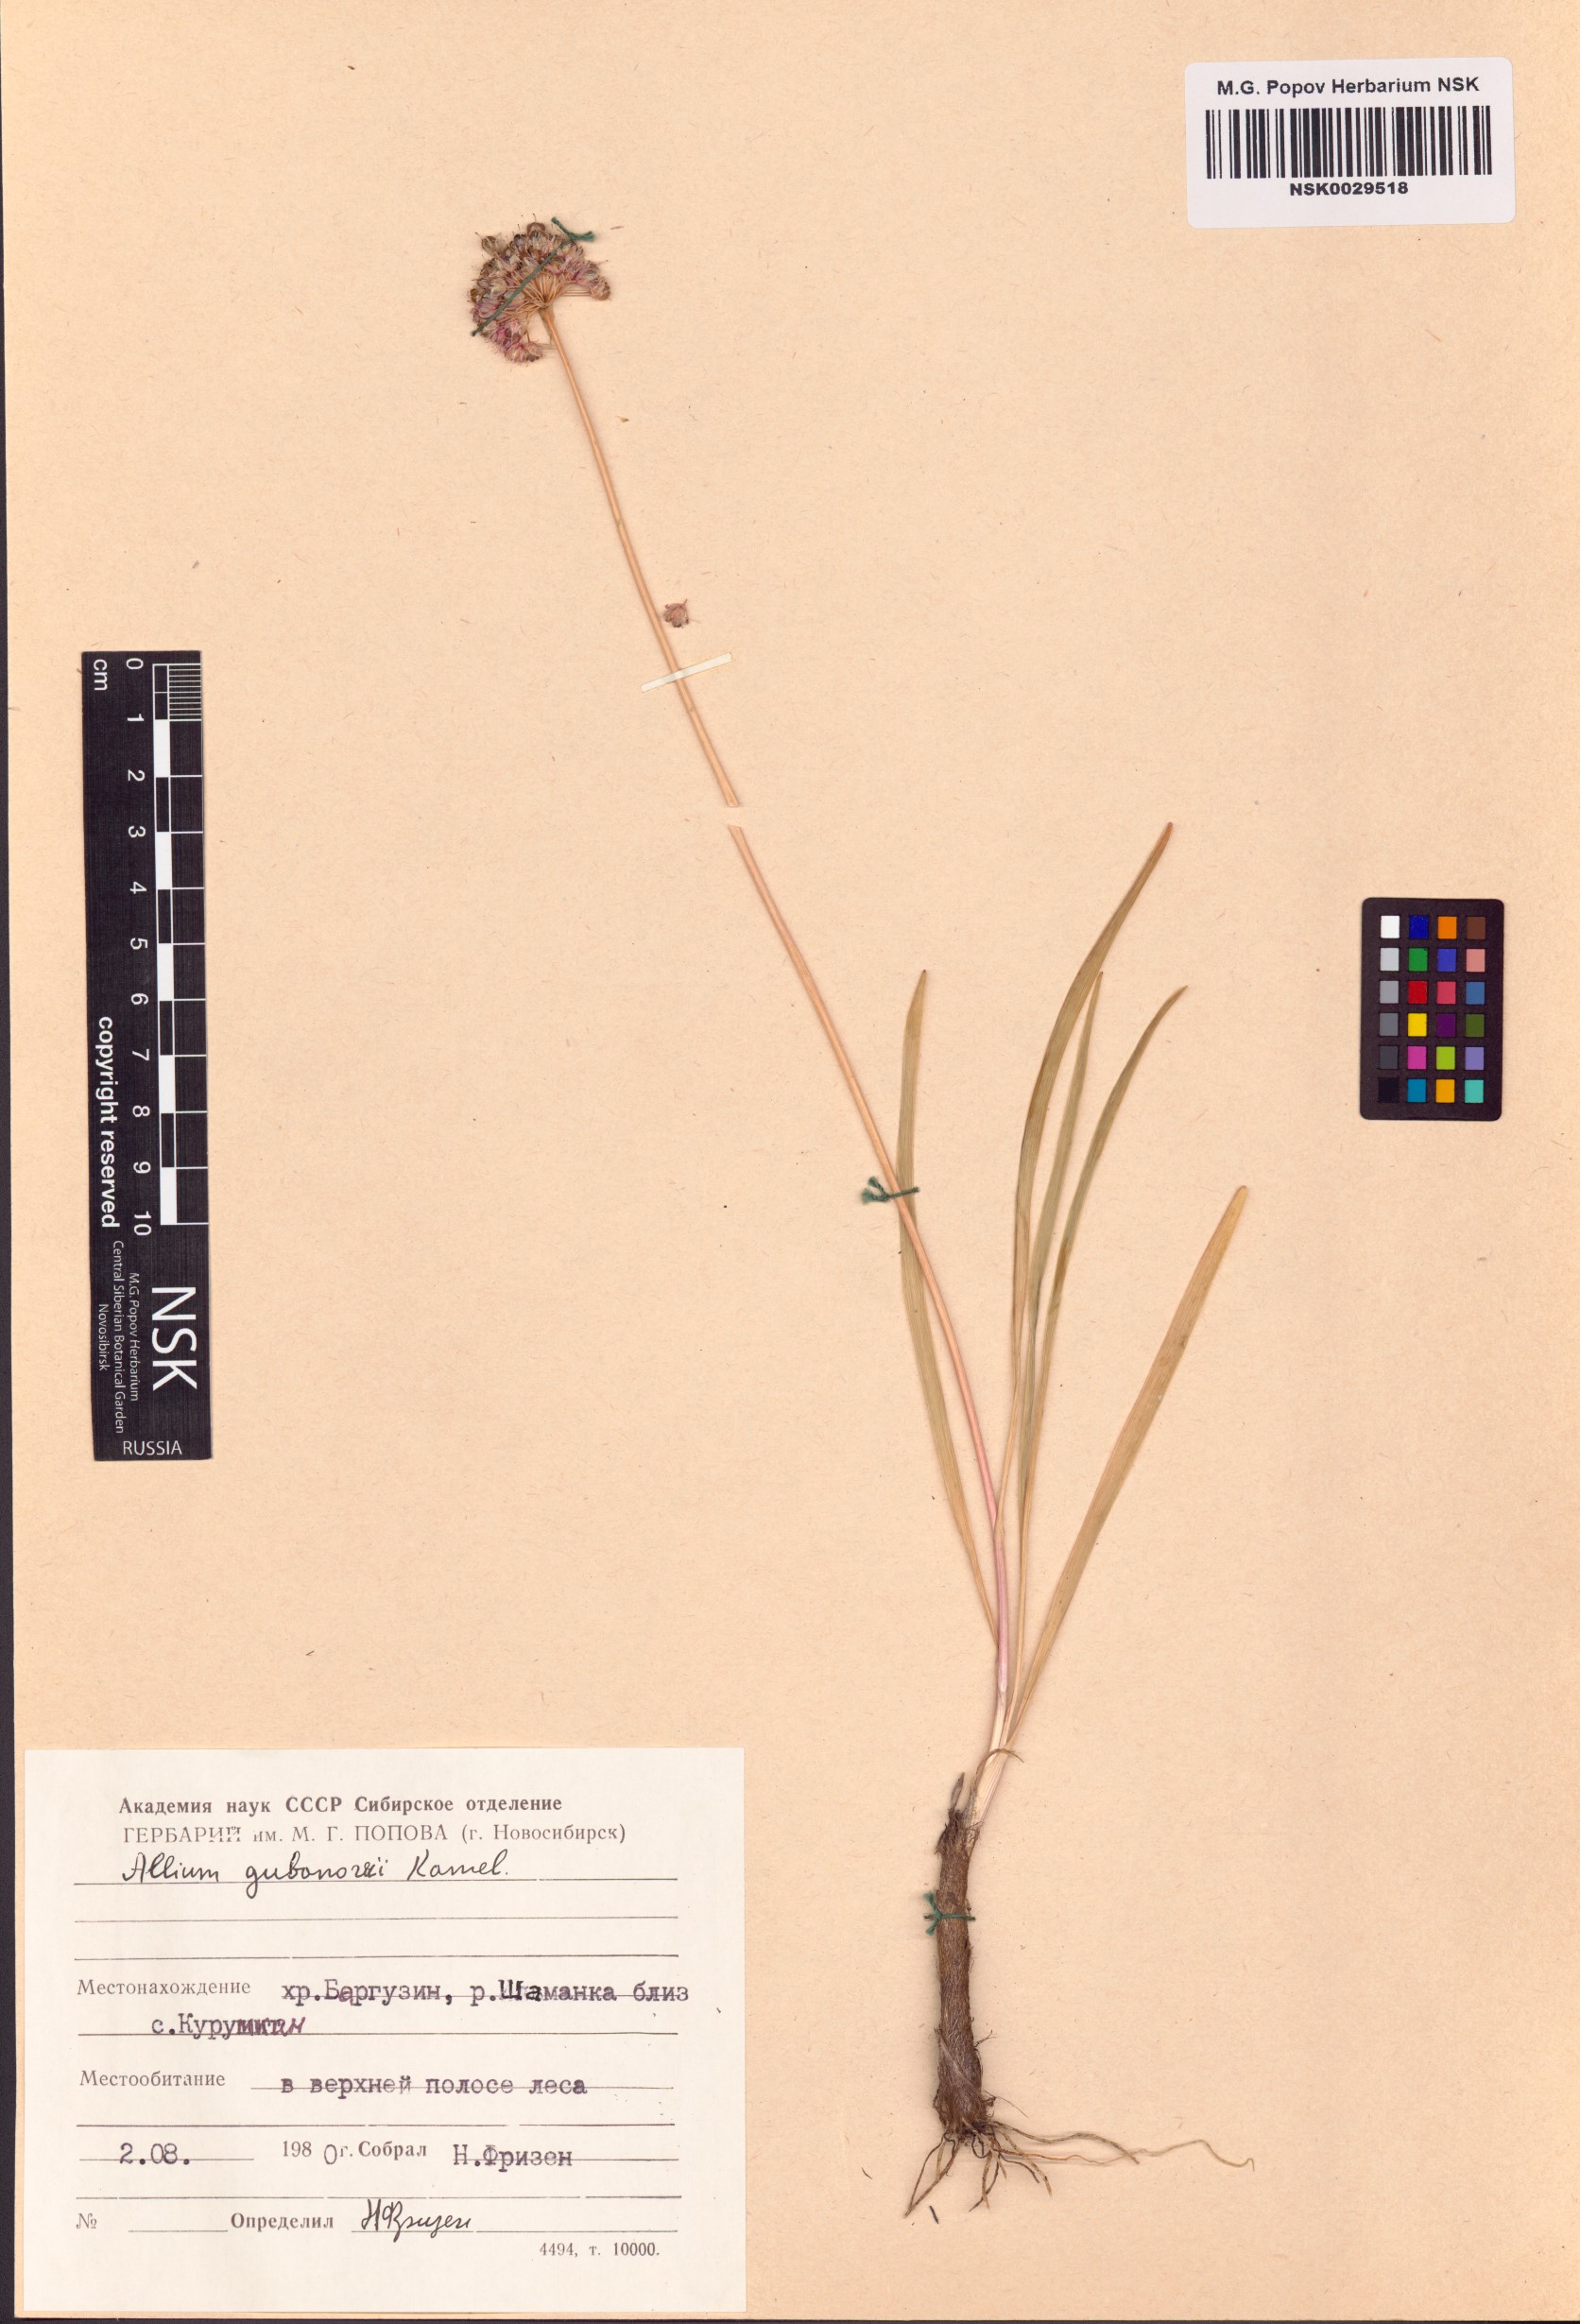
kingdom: Plantae
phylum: Tracheophyta
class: Liliopsida
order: Asparagales
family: Amaryllidaceae
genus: Allium
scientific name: Allium gubanovii
